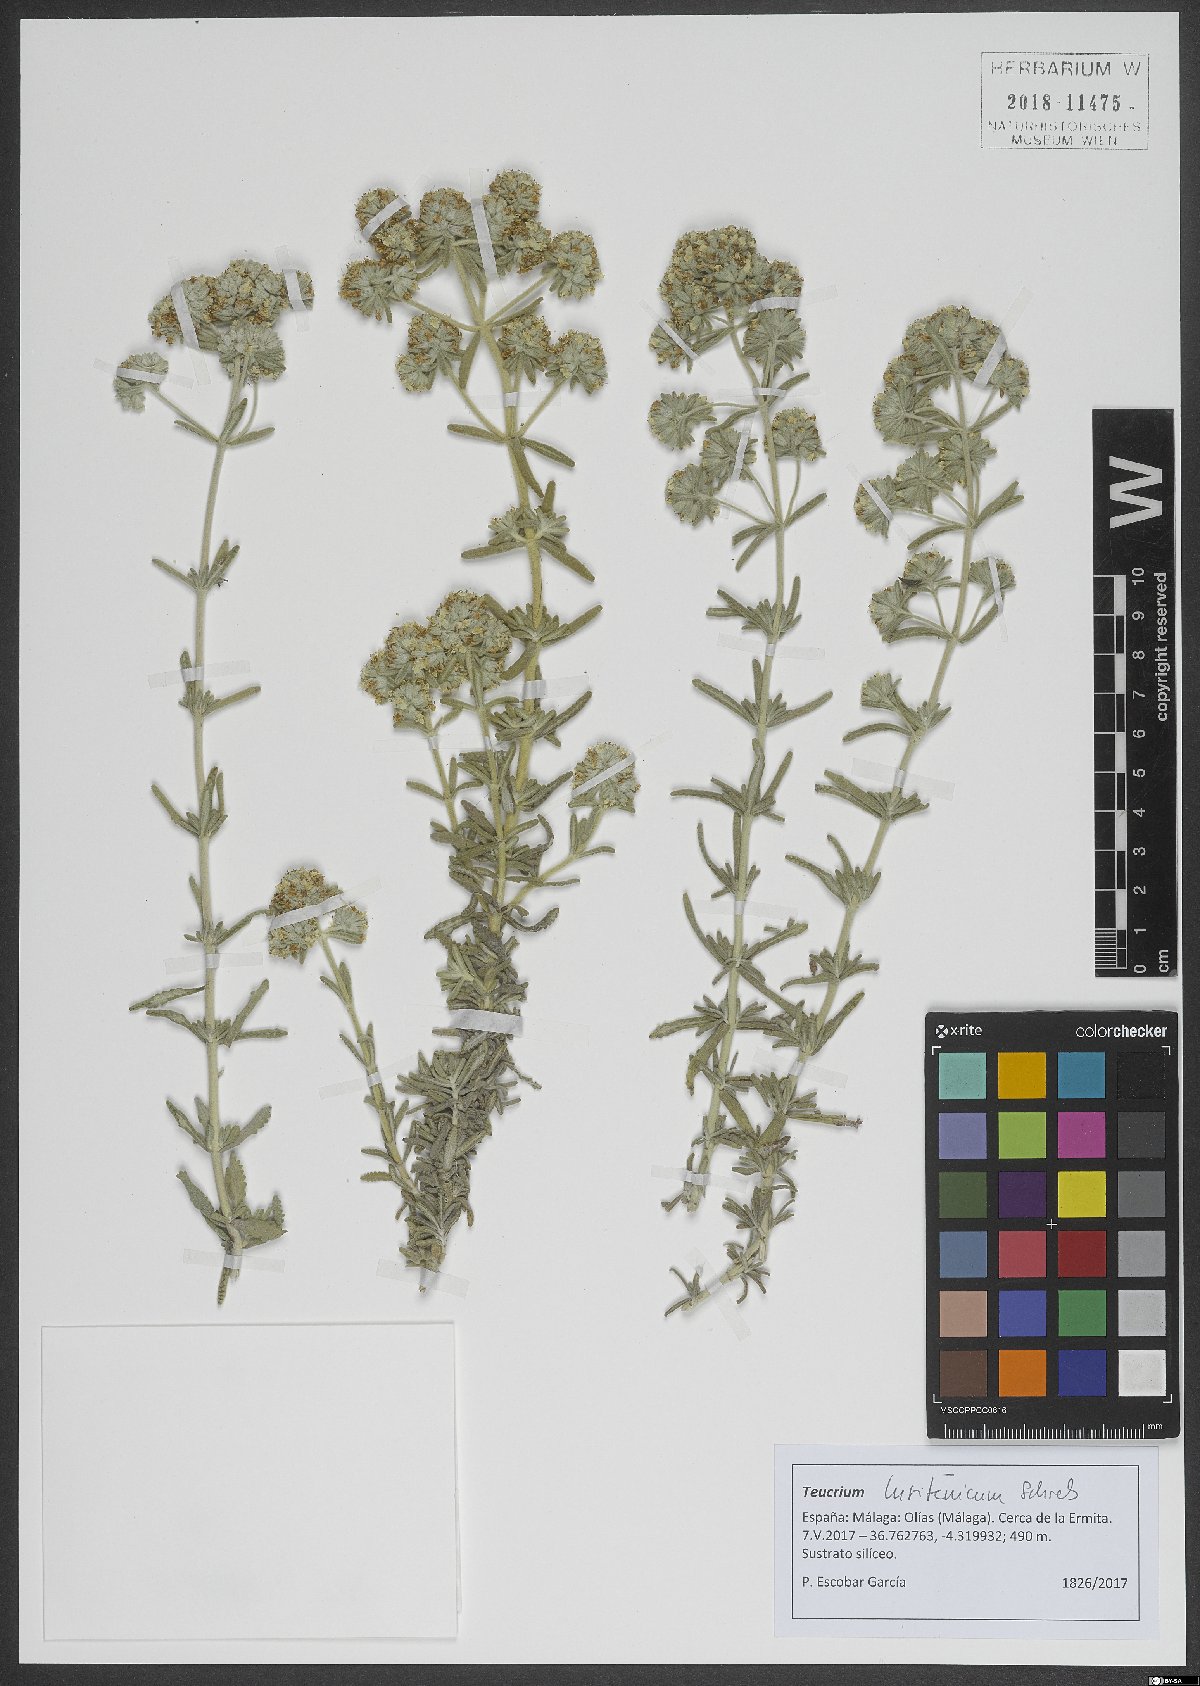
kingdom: Plantae
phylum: Tracheophyta
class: Magnoliopsida
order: Lamiales
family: Lamiaceae
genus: Teucrium
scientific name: Teucrium lusitanicum
